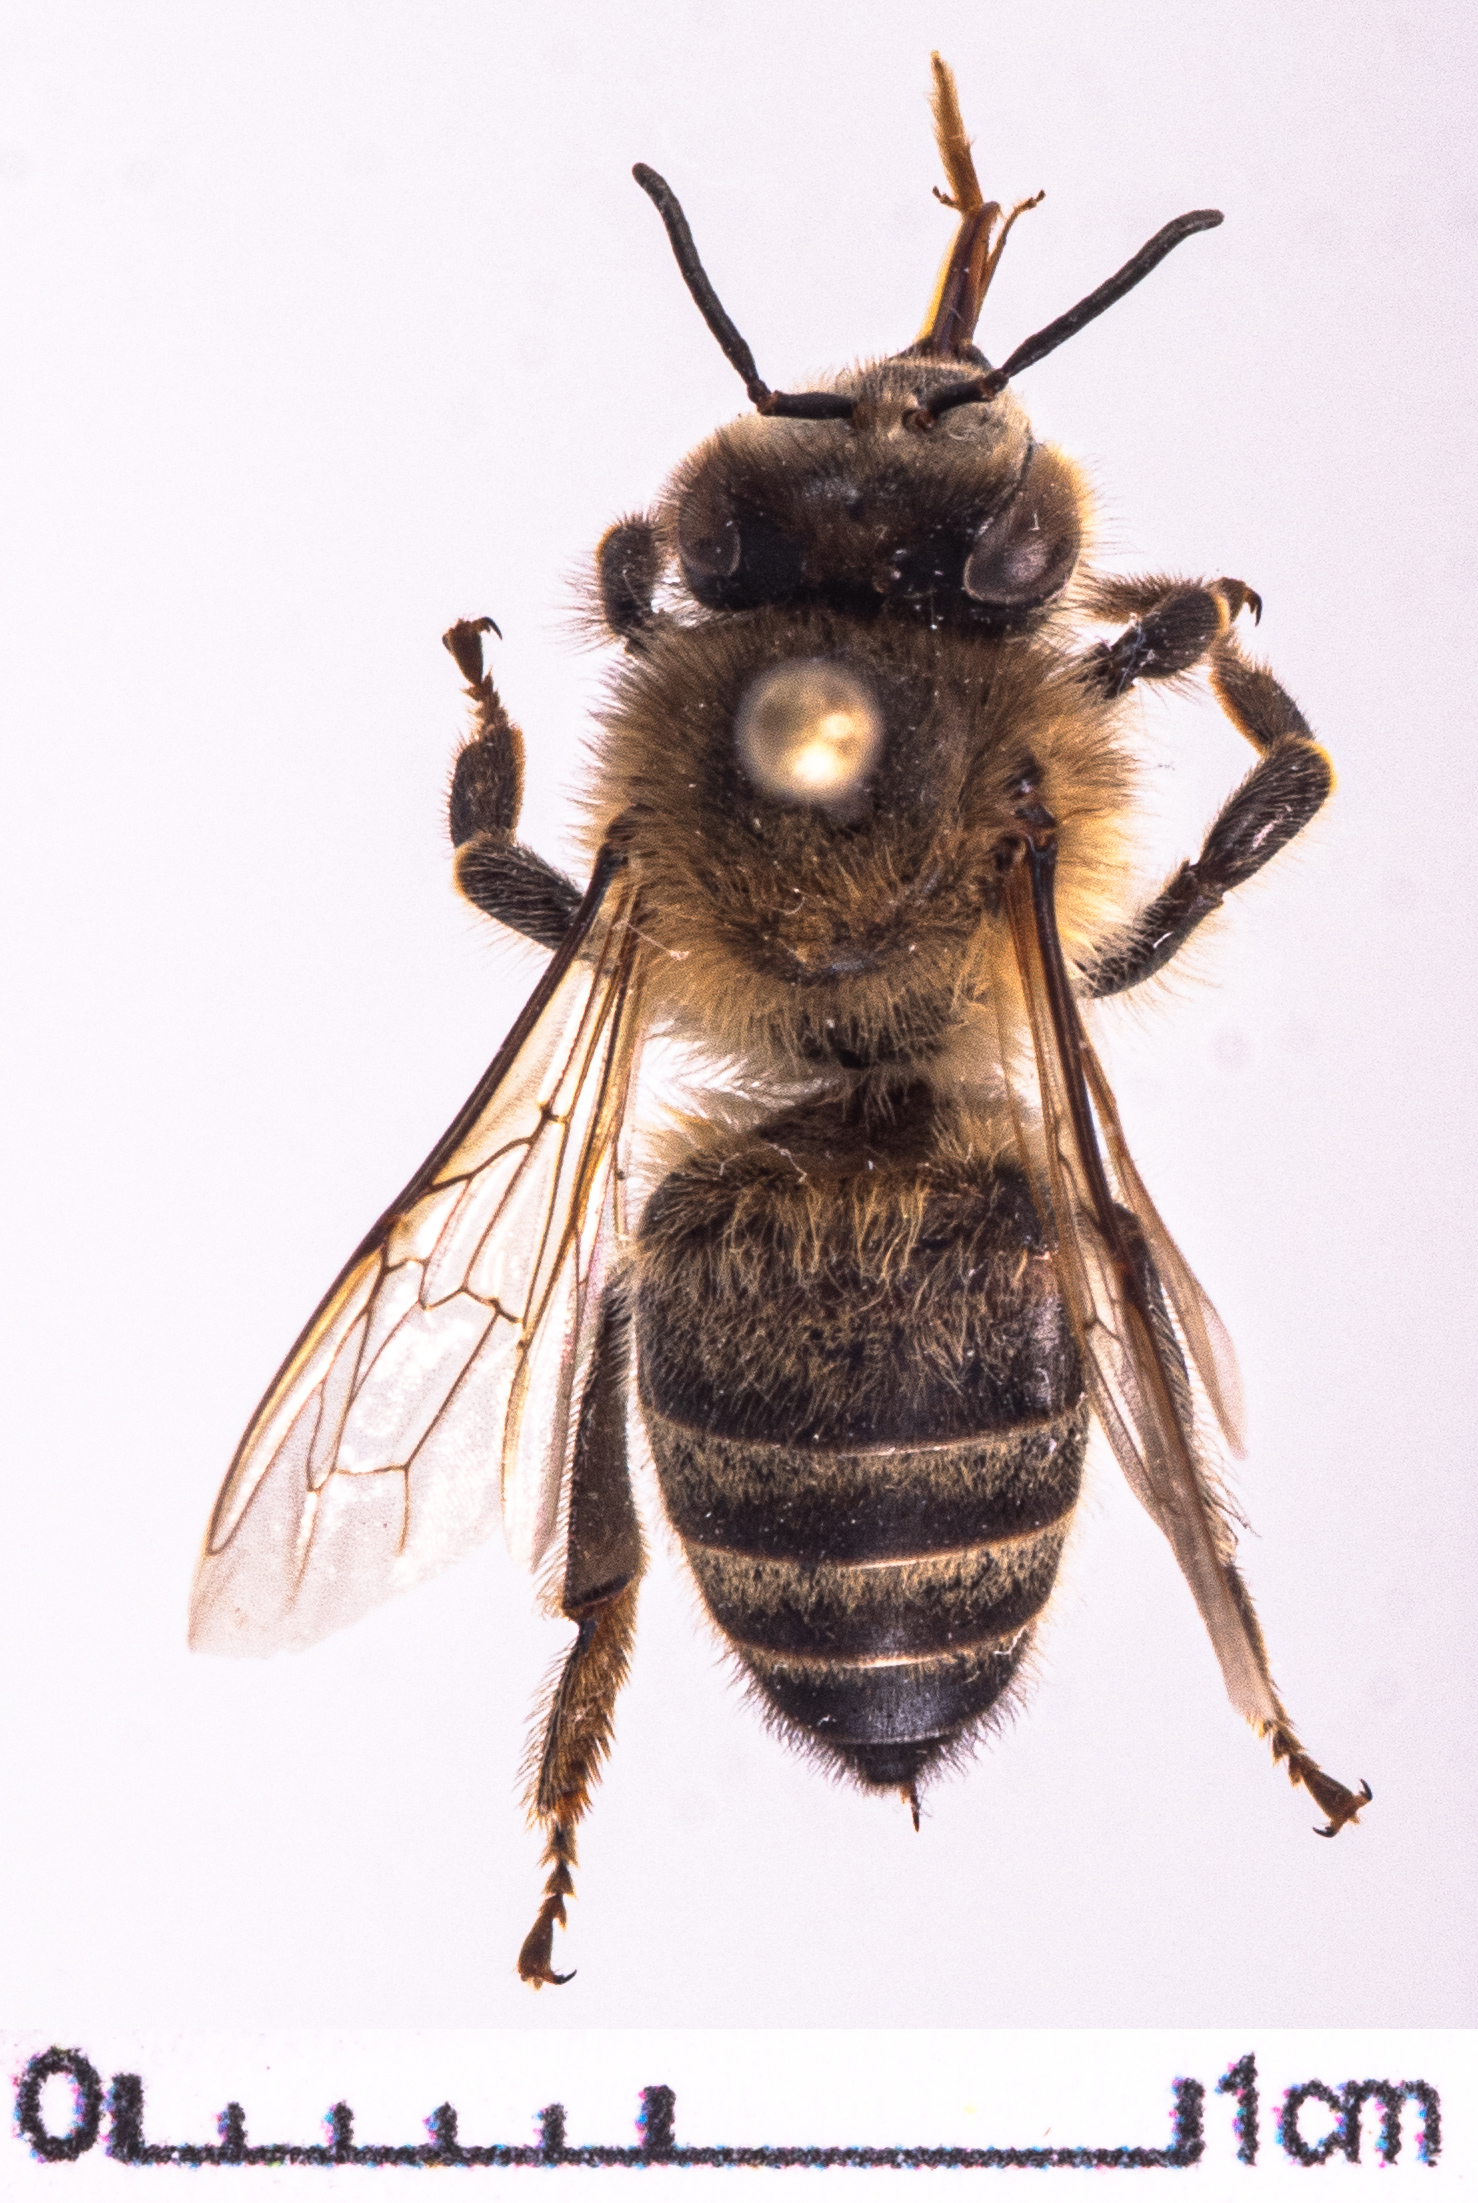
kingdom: Animalia
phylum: Arthropoda
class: Insecta
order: Hymenoptera
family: Apidae
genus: Apis
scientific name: Apis mellifera
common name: Honey bee
